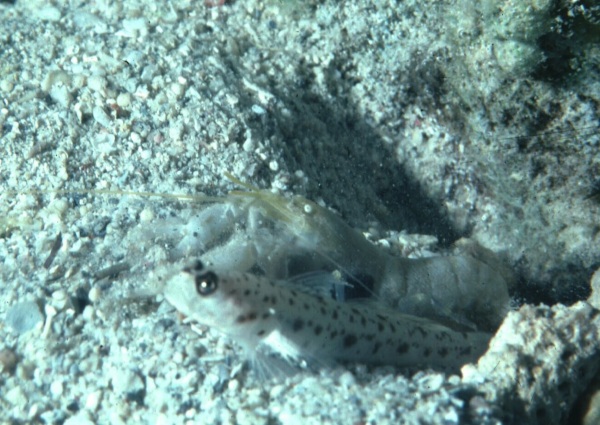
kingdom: Animalia
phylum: Chordata
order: Perciformes
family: Gobiidae
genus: Ctenogobius
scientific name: Ctenogobius
